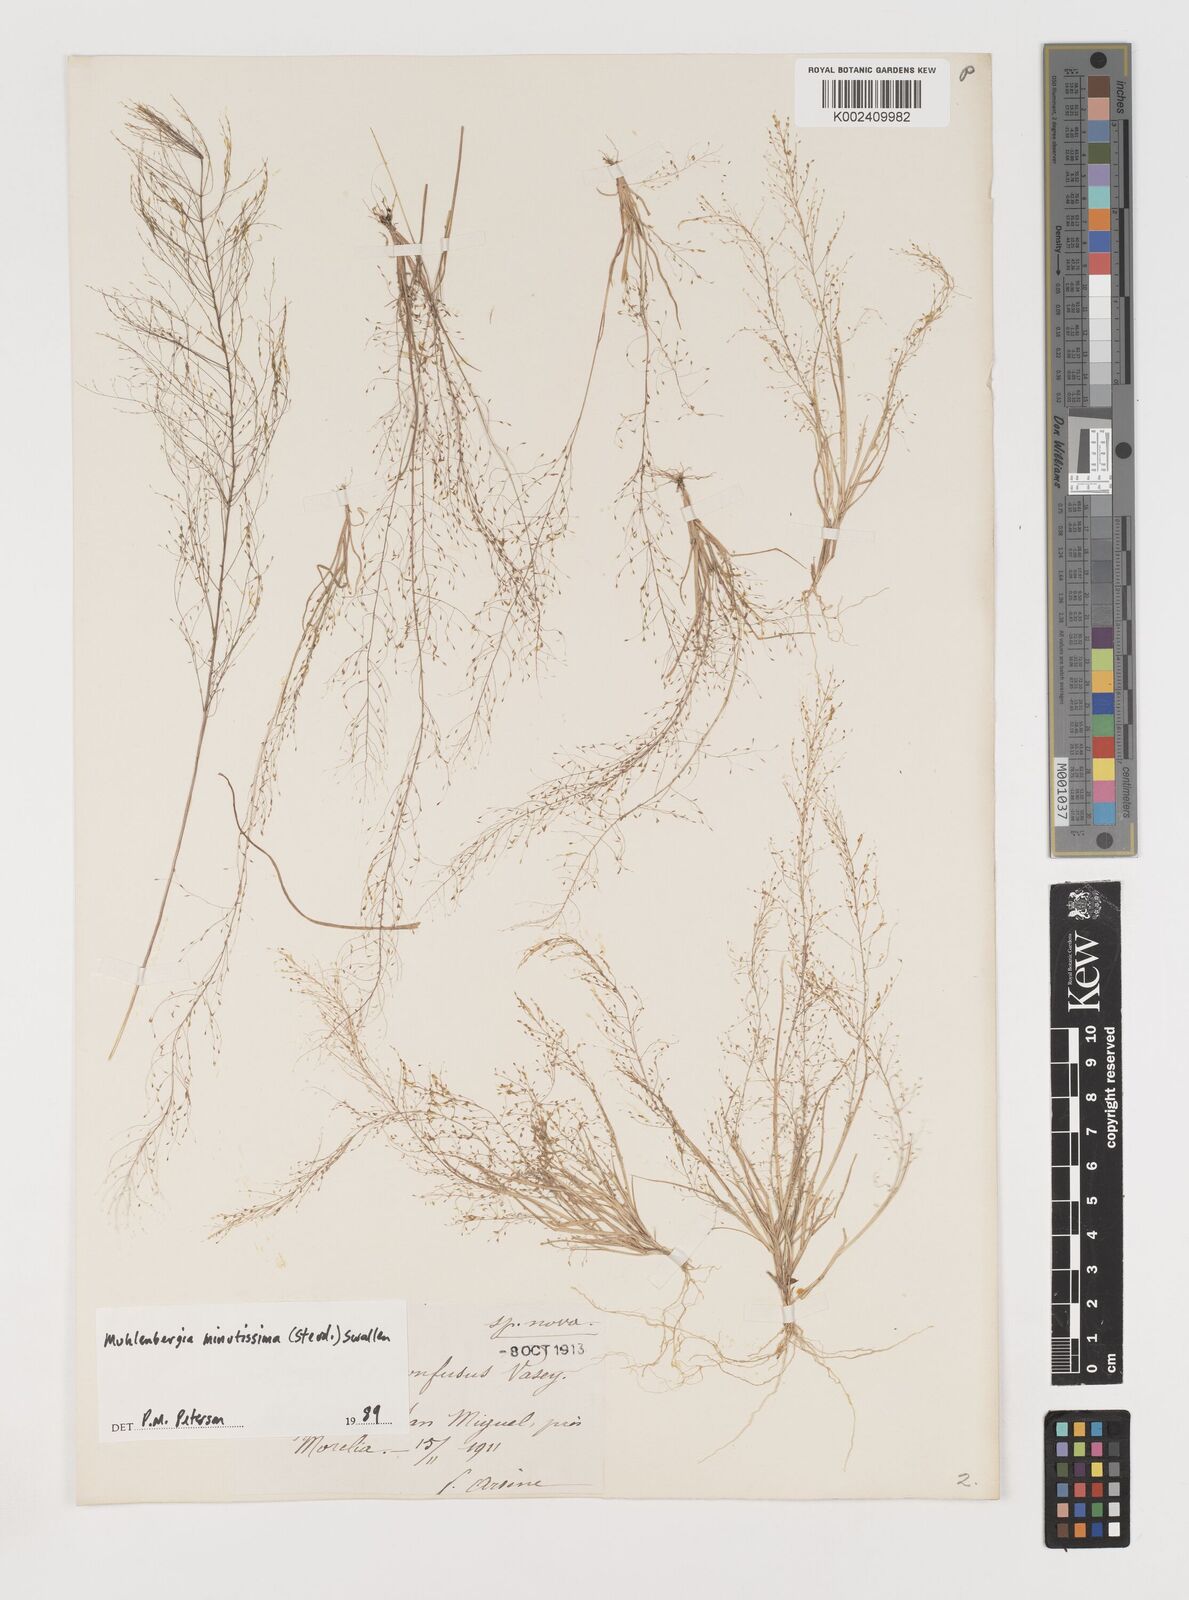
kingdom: Plantae
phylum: Tracheophyta
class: Liliopsida
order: Poales
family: Poaceae
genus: Muhlenbergia
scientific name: Muhlenbergia minutissima
